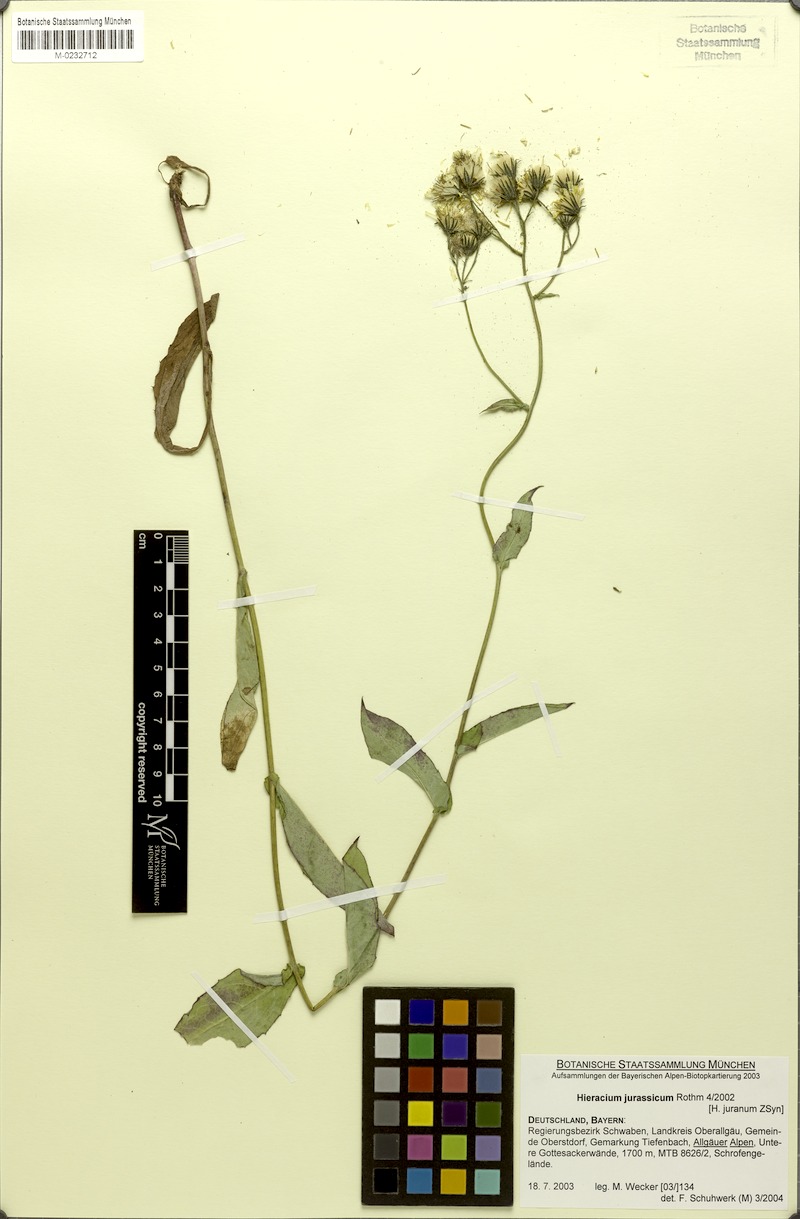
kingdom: Plantae
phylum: Tracheophyta
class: Magnoliopsida
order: Asterales
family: Asteraceae
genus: Hieracium
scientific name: Hieracium jurassicum
